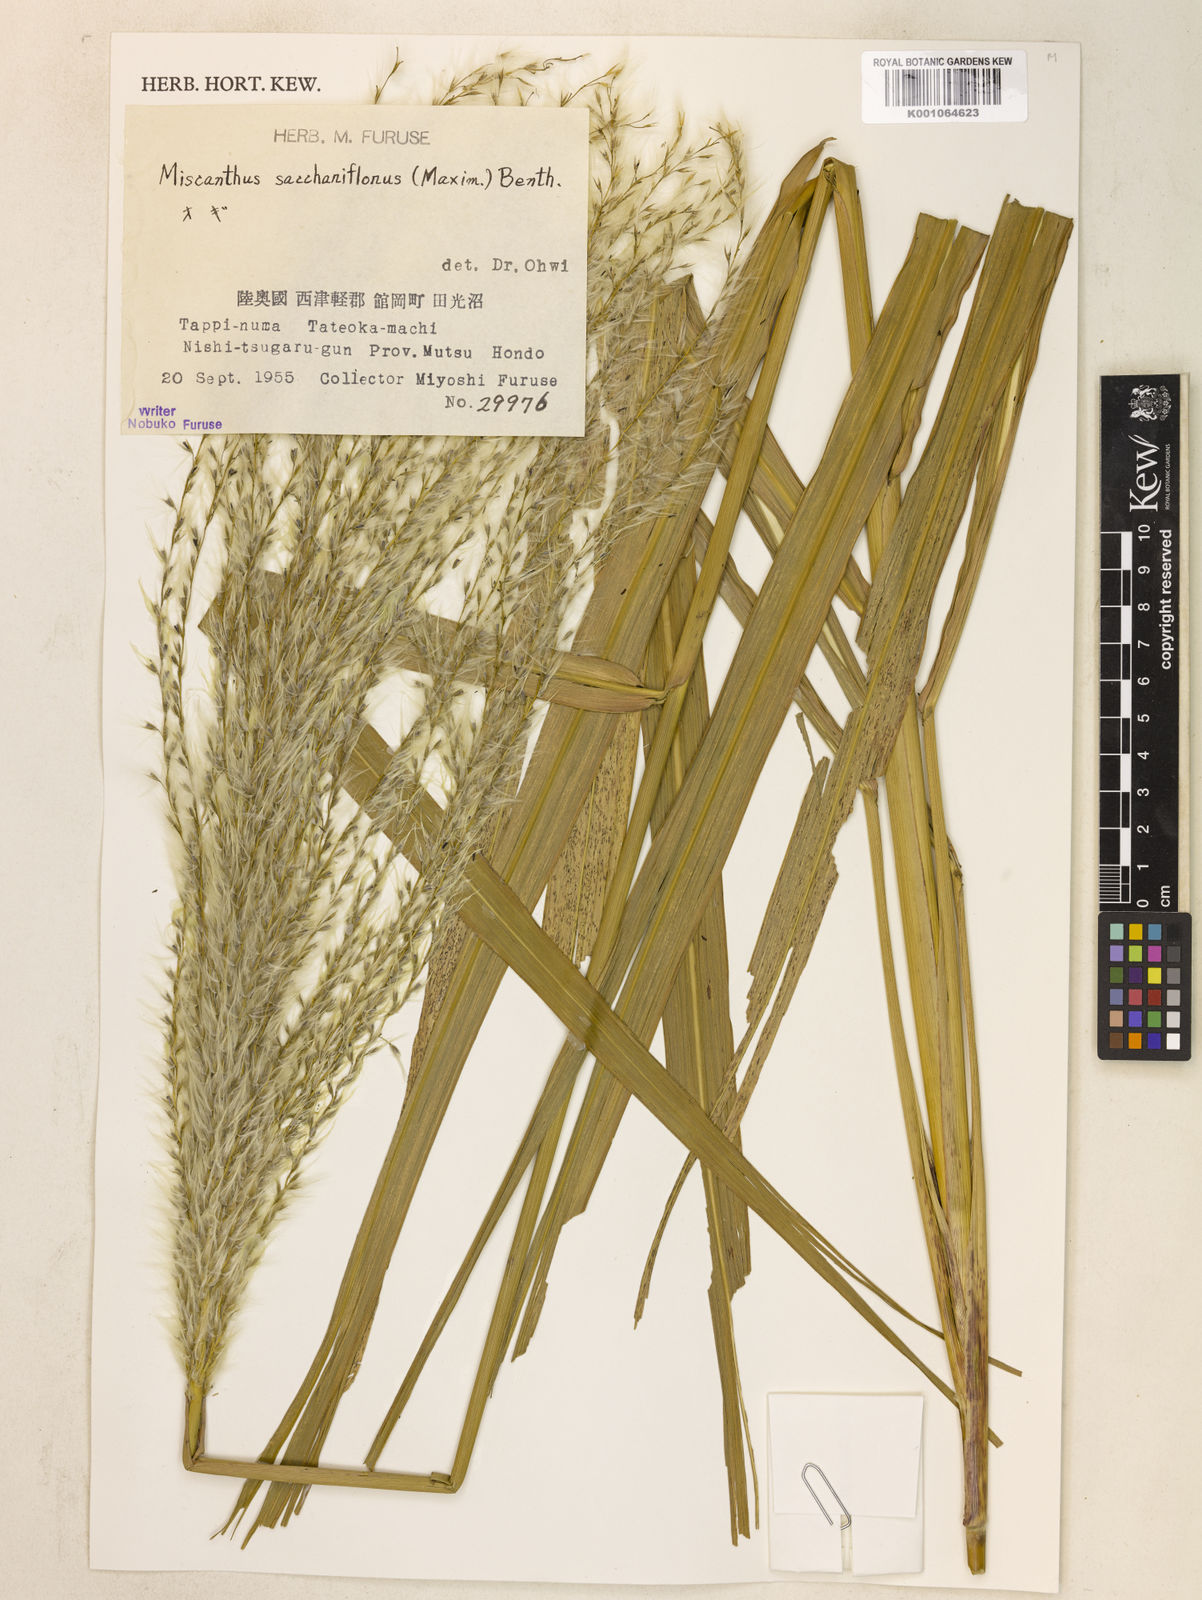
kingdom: Plantae
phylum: Tracheophyta
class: Liliopsida
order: Poales
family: Poaceae
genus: Miscanthus
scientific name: Miscanthus
